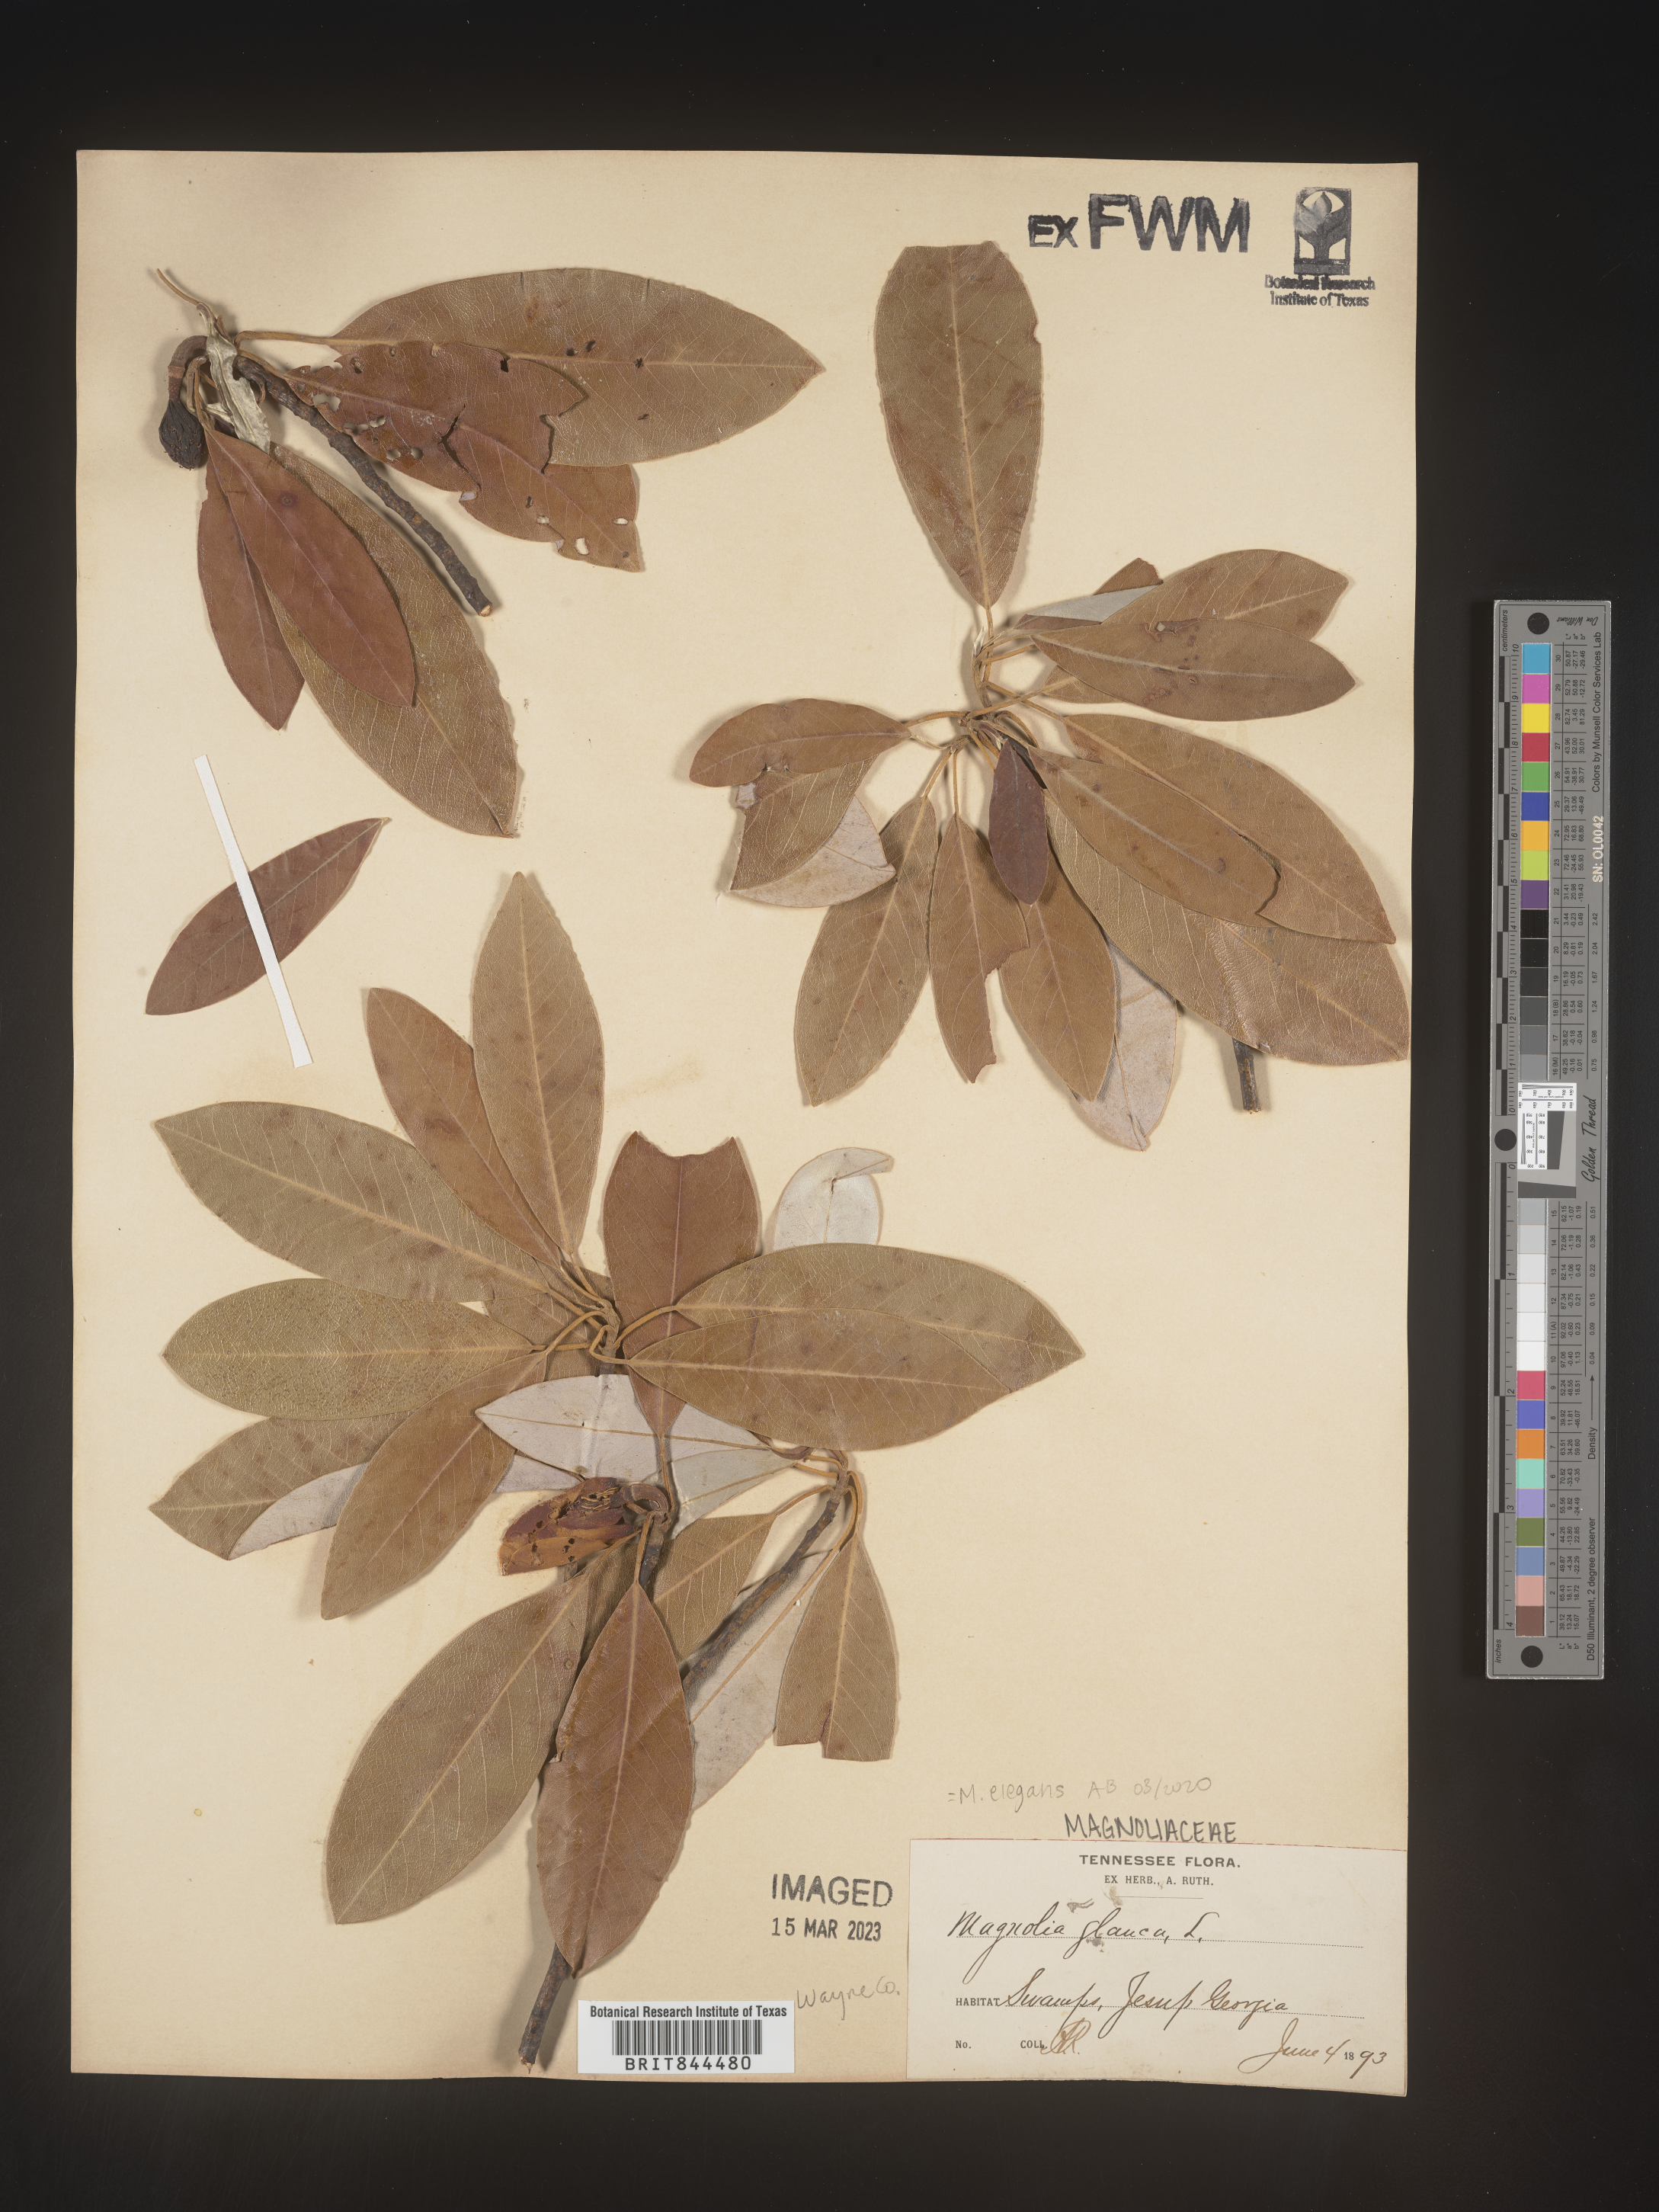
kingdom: Plantae
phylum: Tracheophyta
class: Magnoliopsida
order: Magnoliales
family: Magnoliaceae
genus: Magnolia
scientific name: Magnolia
